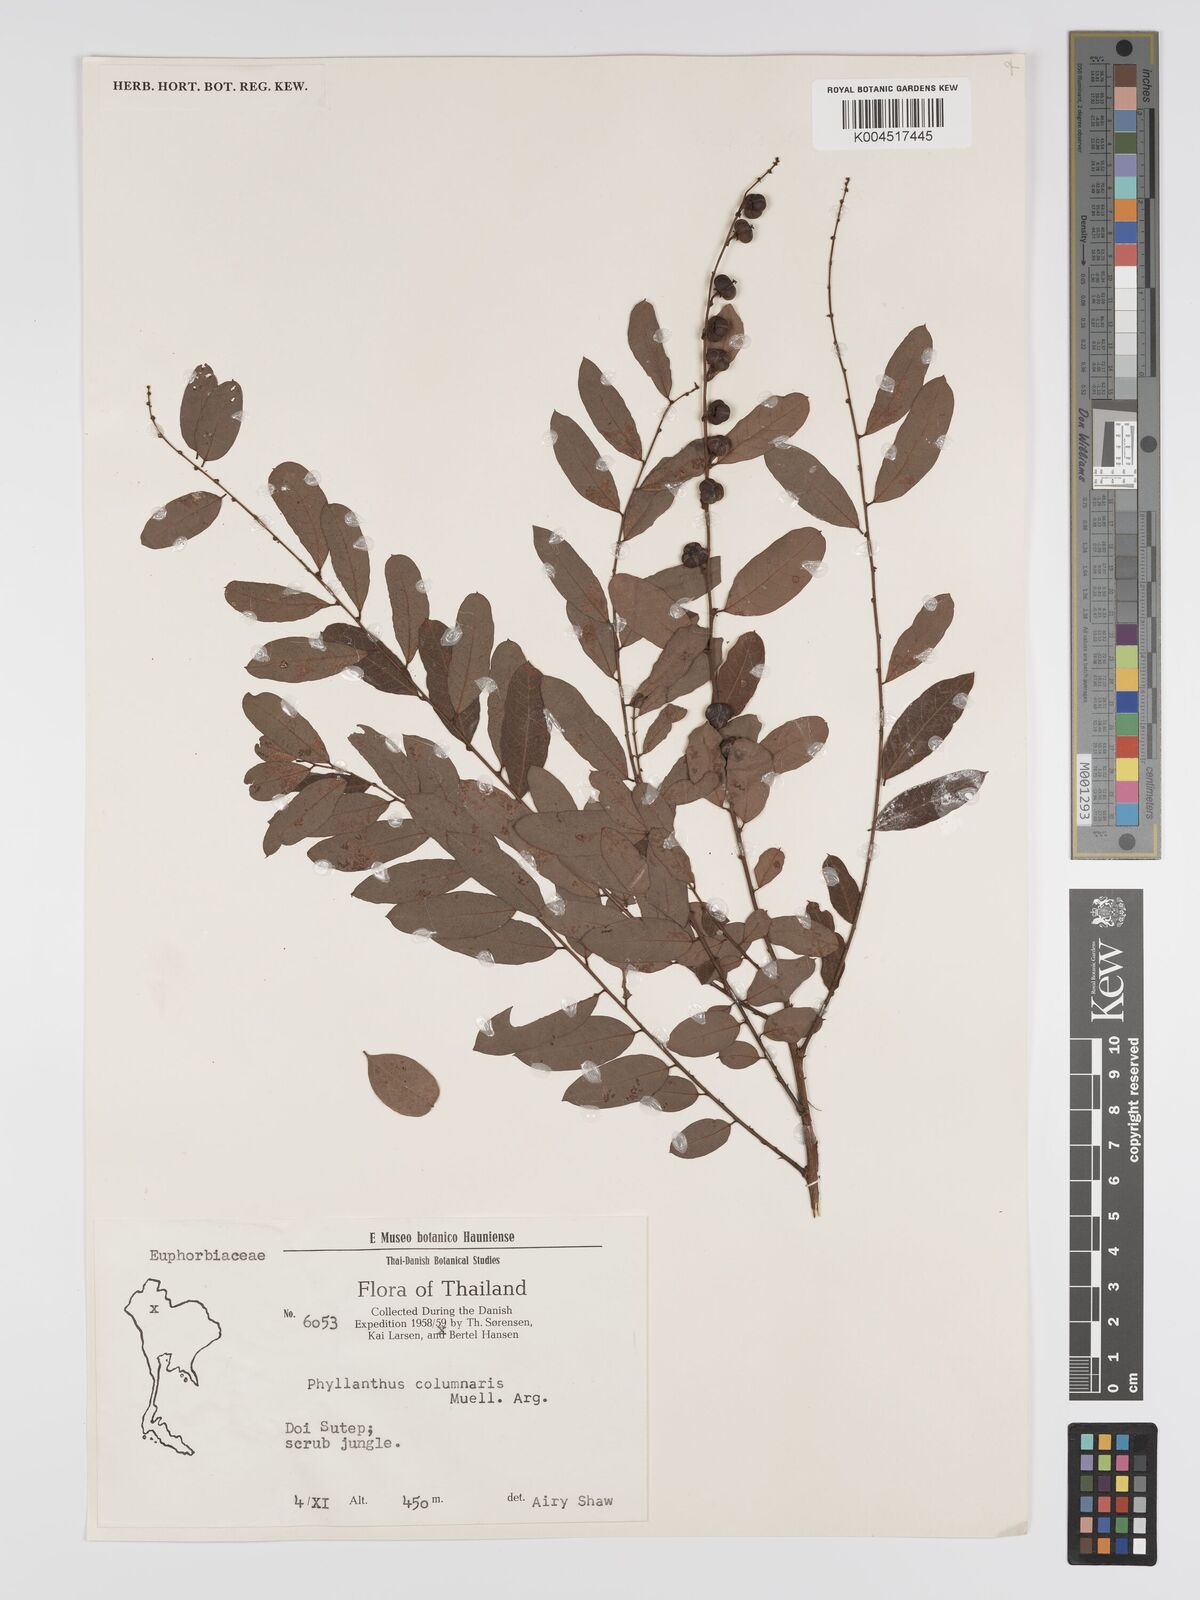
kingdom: Plantae
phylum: Tracheophyta
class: Magnoliopsida
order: Malpighiales
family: Phyllanthaceae
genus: Phyllanthus
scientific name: Phyllanthus
